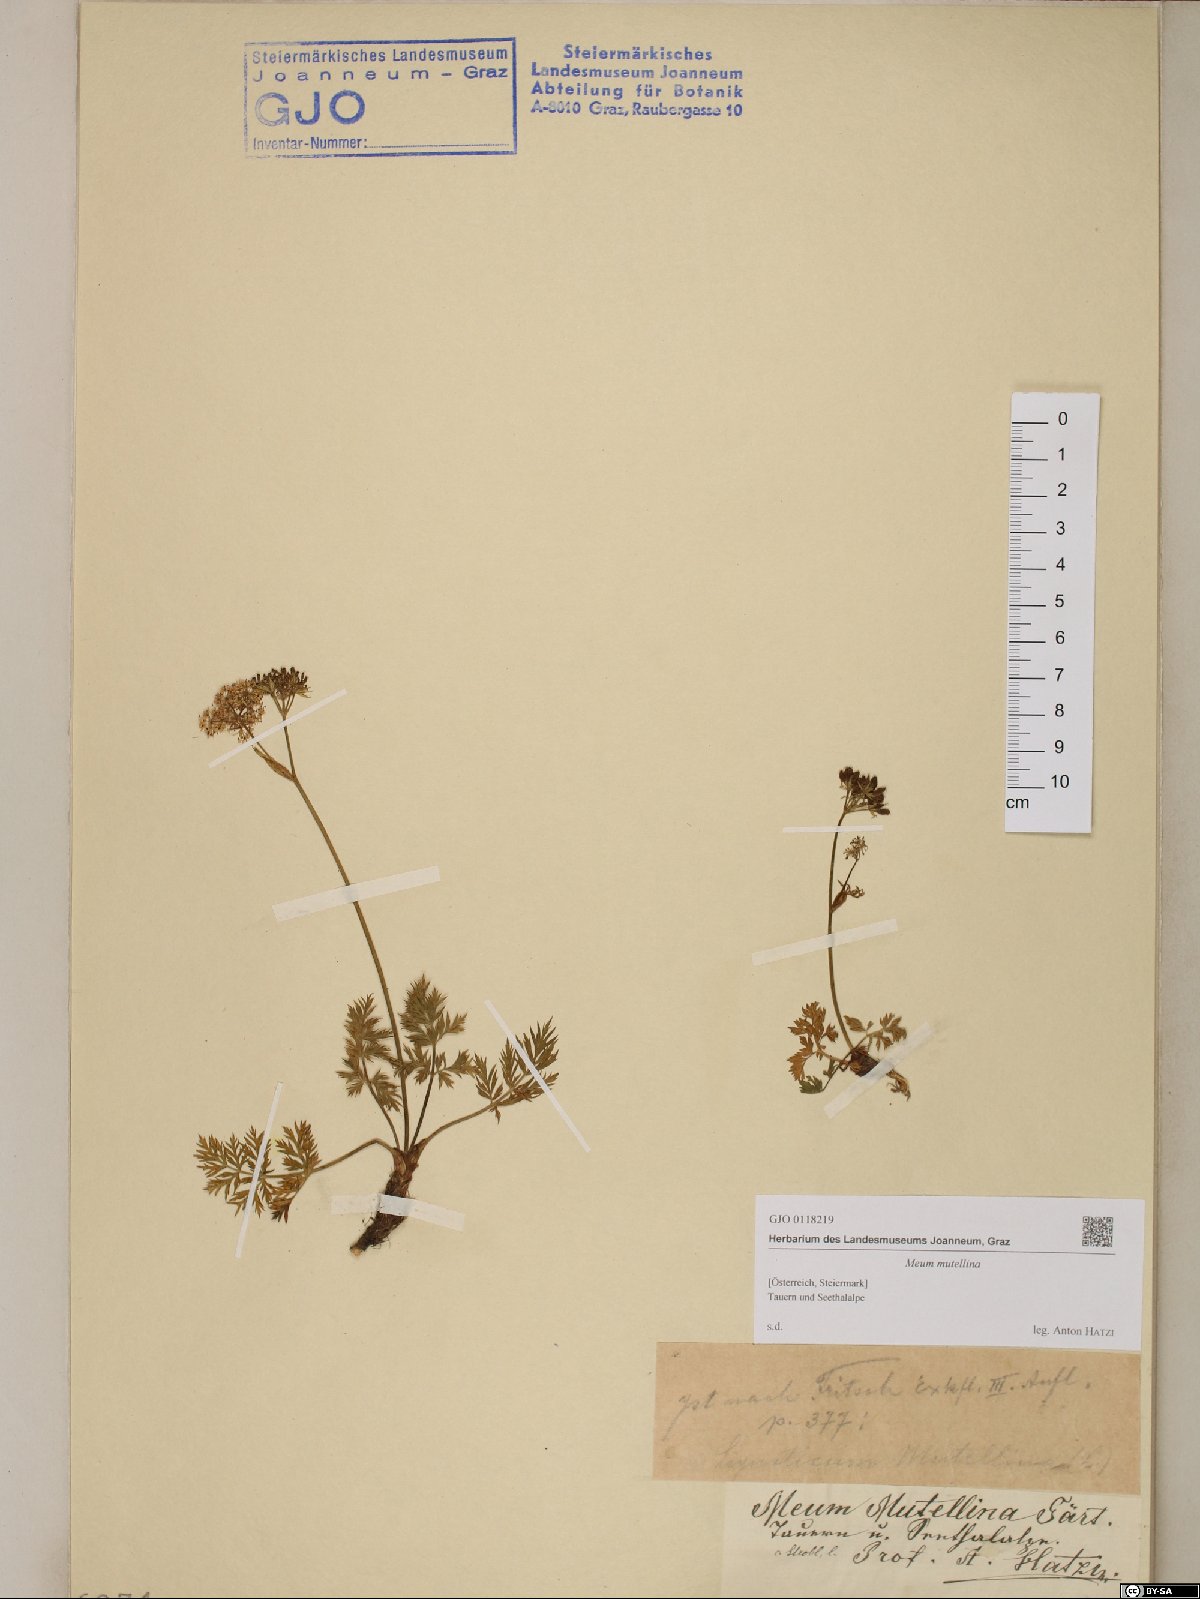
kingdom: Plantae
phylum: Tracheophyta
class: Magnoliopsida
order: Apiales
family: Apiaceae
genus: Mutellina
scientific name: Mutellina adonidifolia
